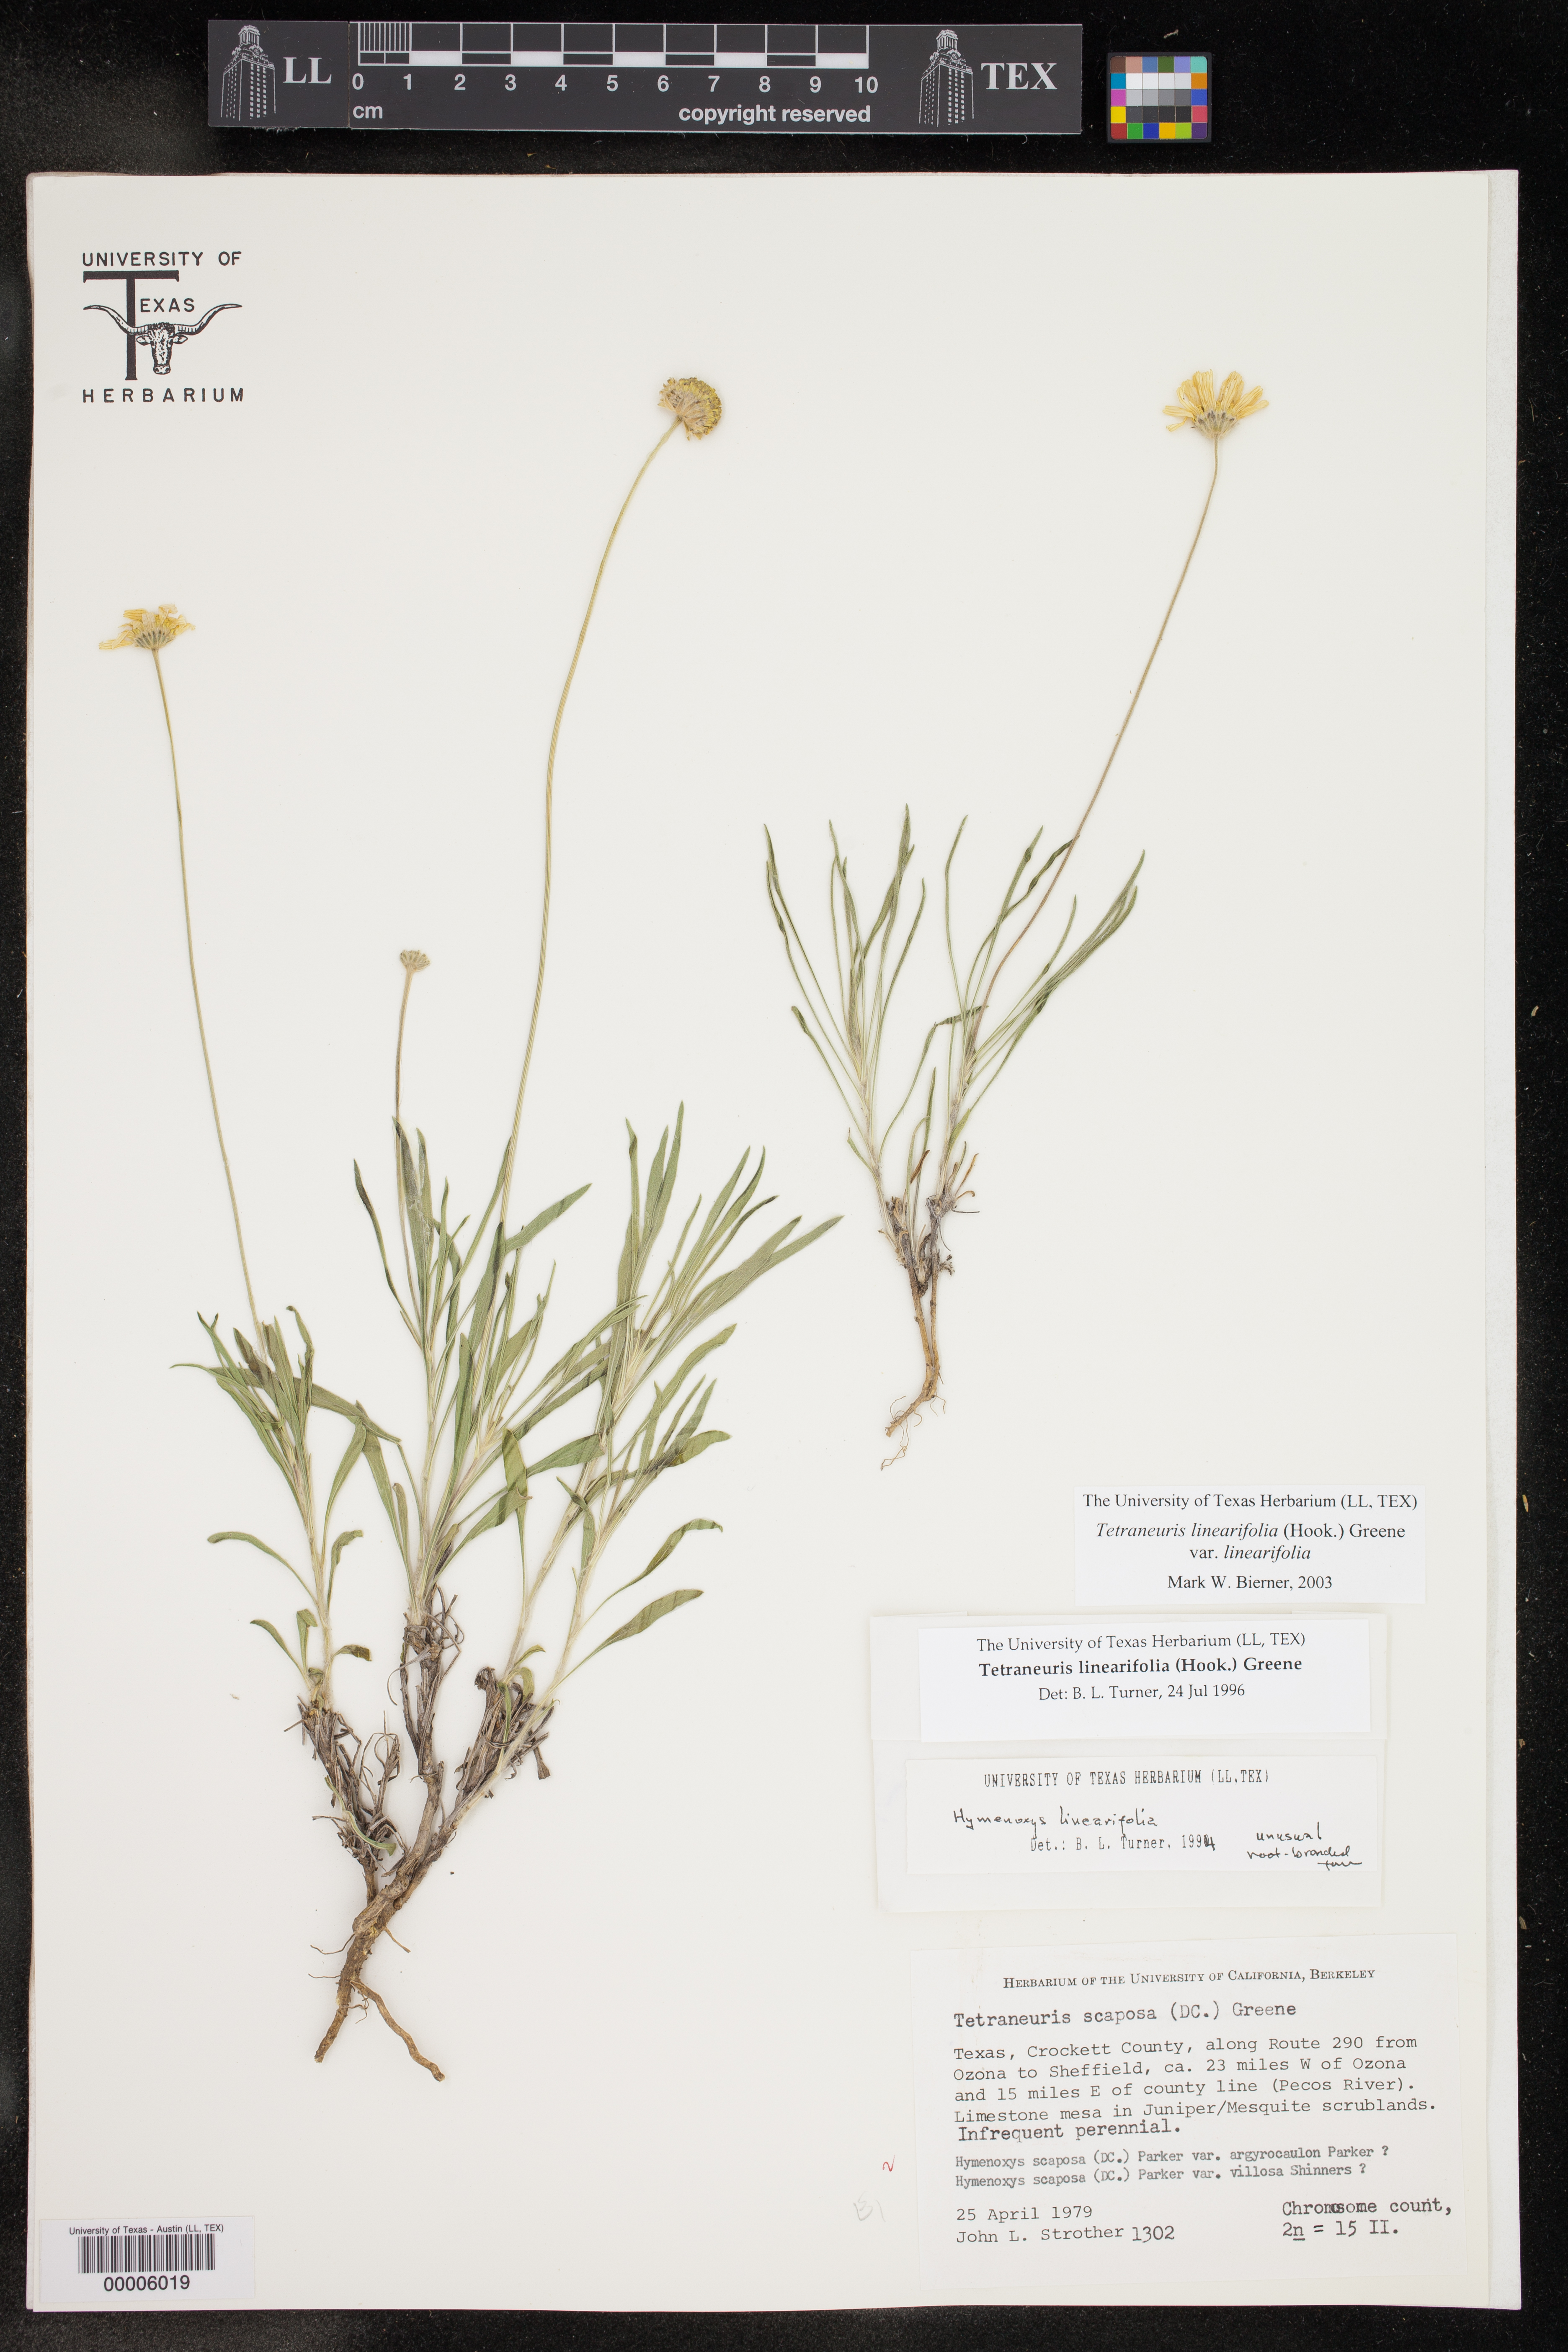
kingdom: Plantae
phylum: Tracheophyta
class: Magnoliopsida
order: Asterales
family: Asteraceae
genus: Tetraneuris
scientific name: Tetraneuris linearifolia
